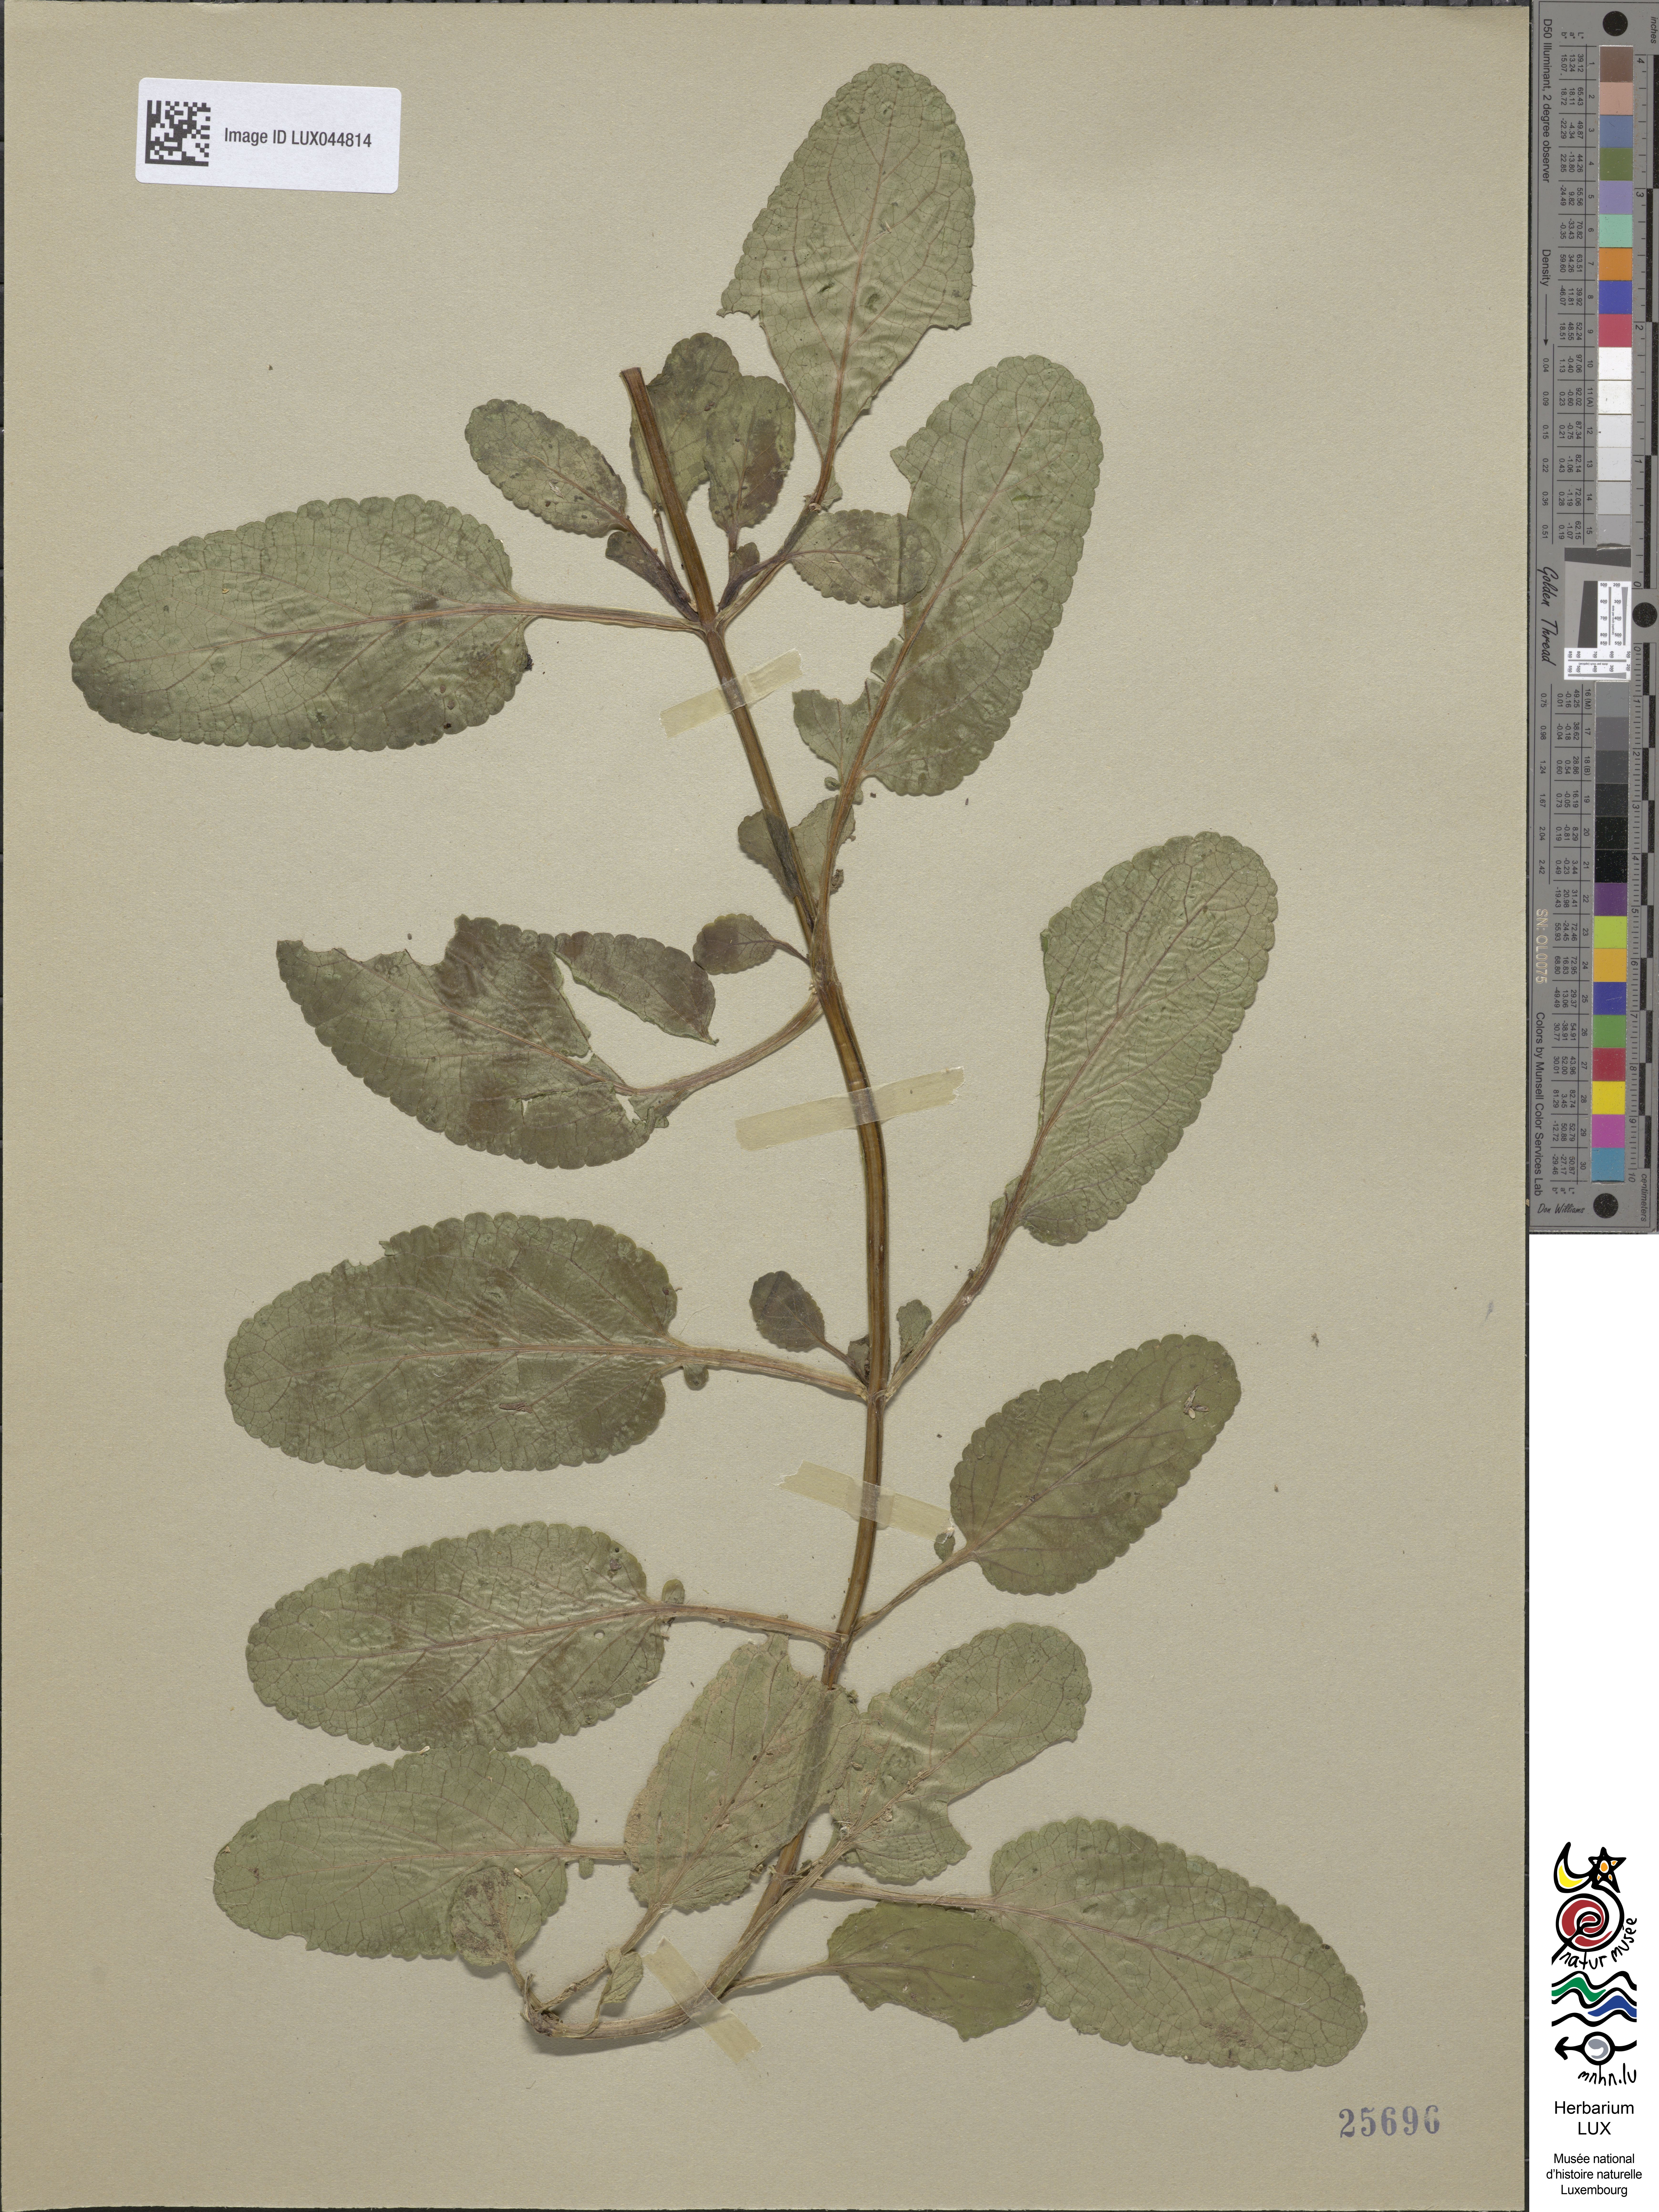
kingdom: Plantae
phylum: Tracheophyta
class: Magnoliopsida
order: Lamiales
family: Scrophulariaceae
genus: Scrophularia
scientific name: Scrophularia auriculata
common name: Water betony
